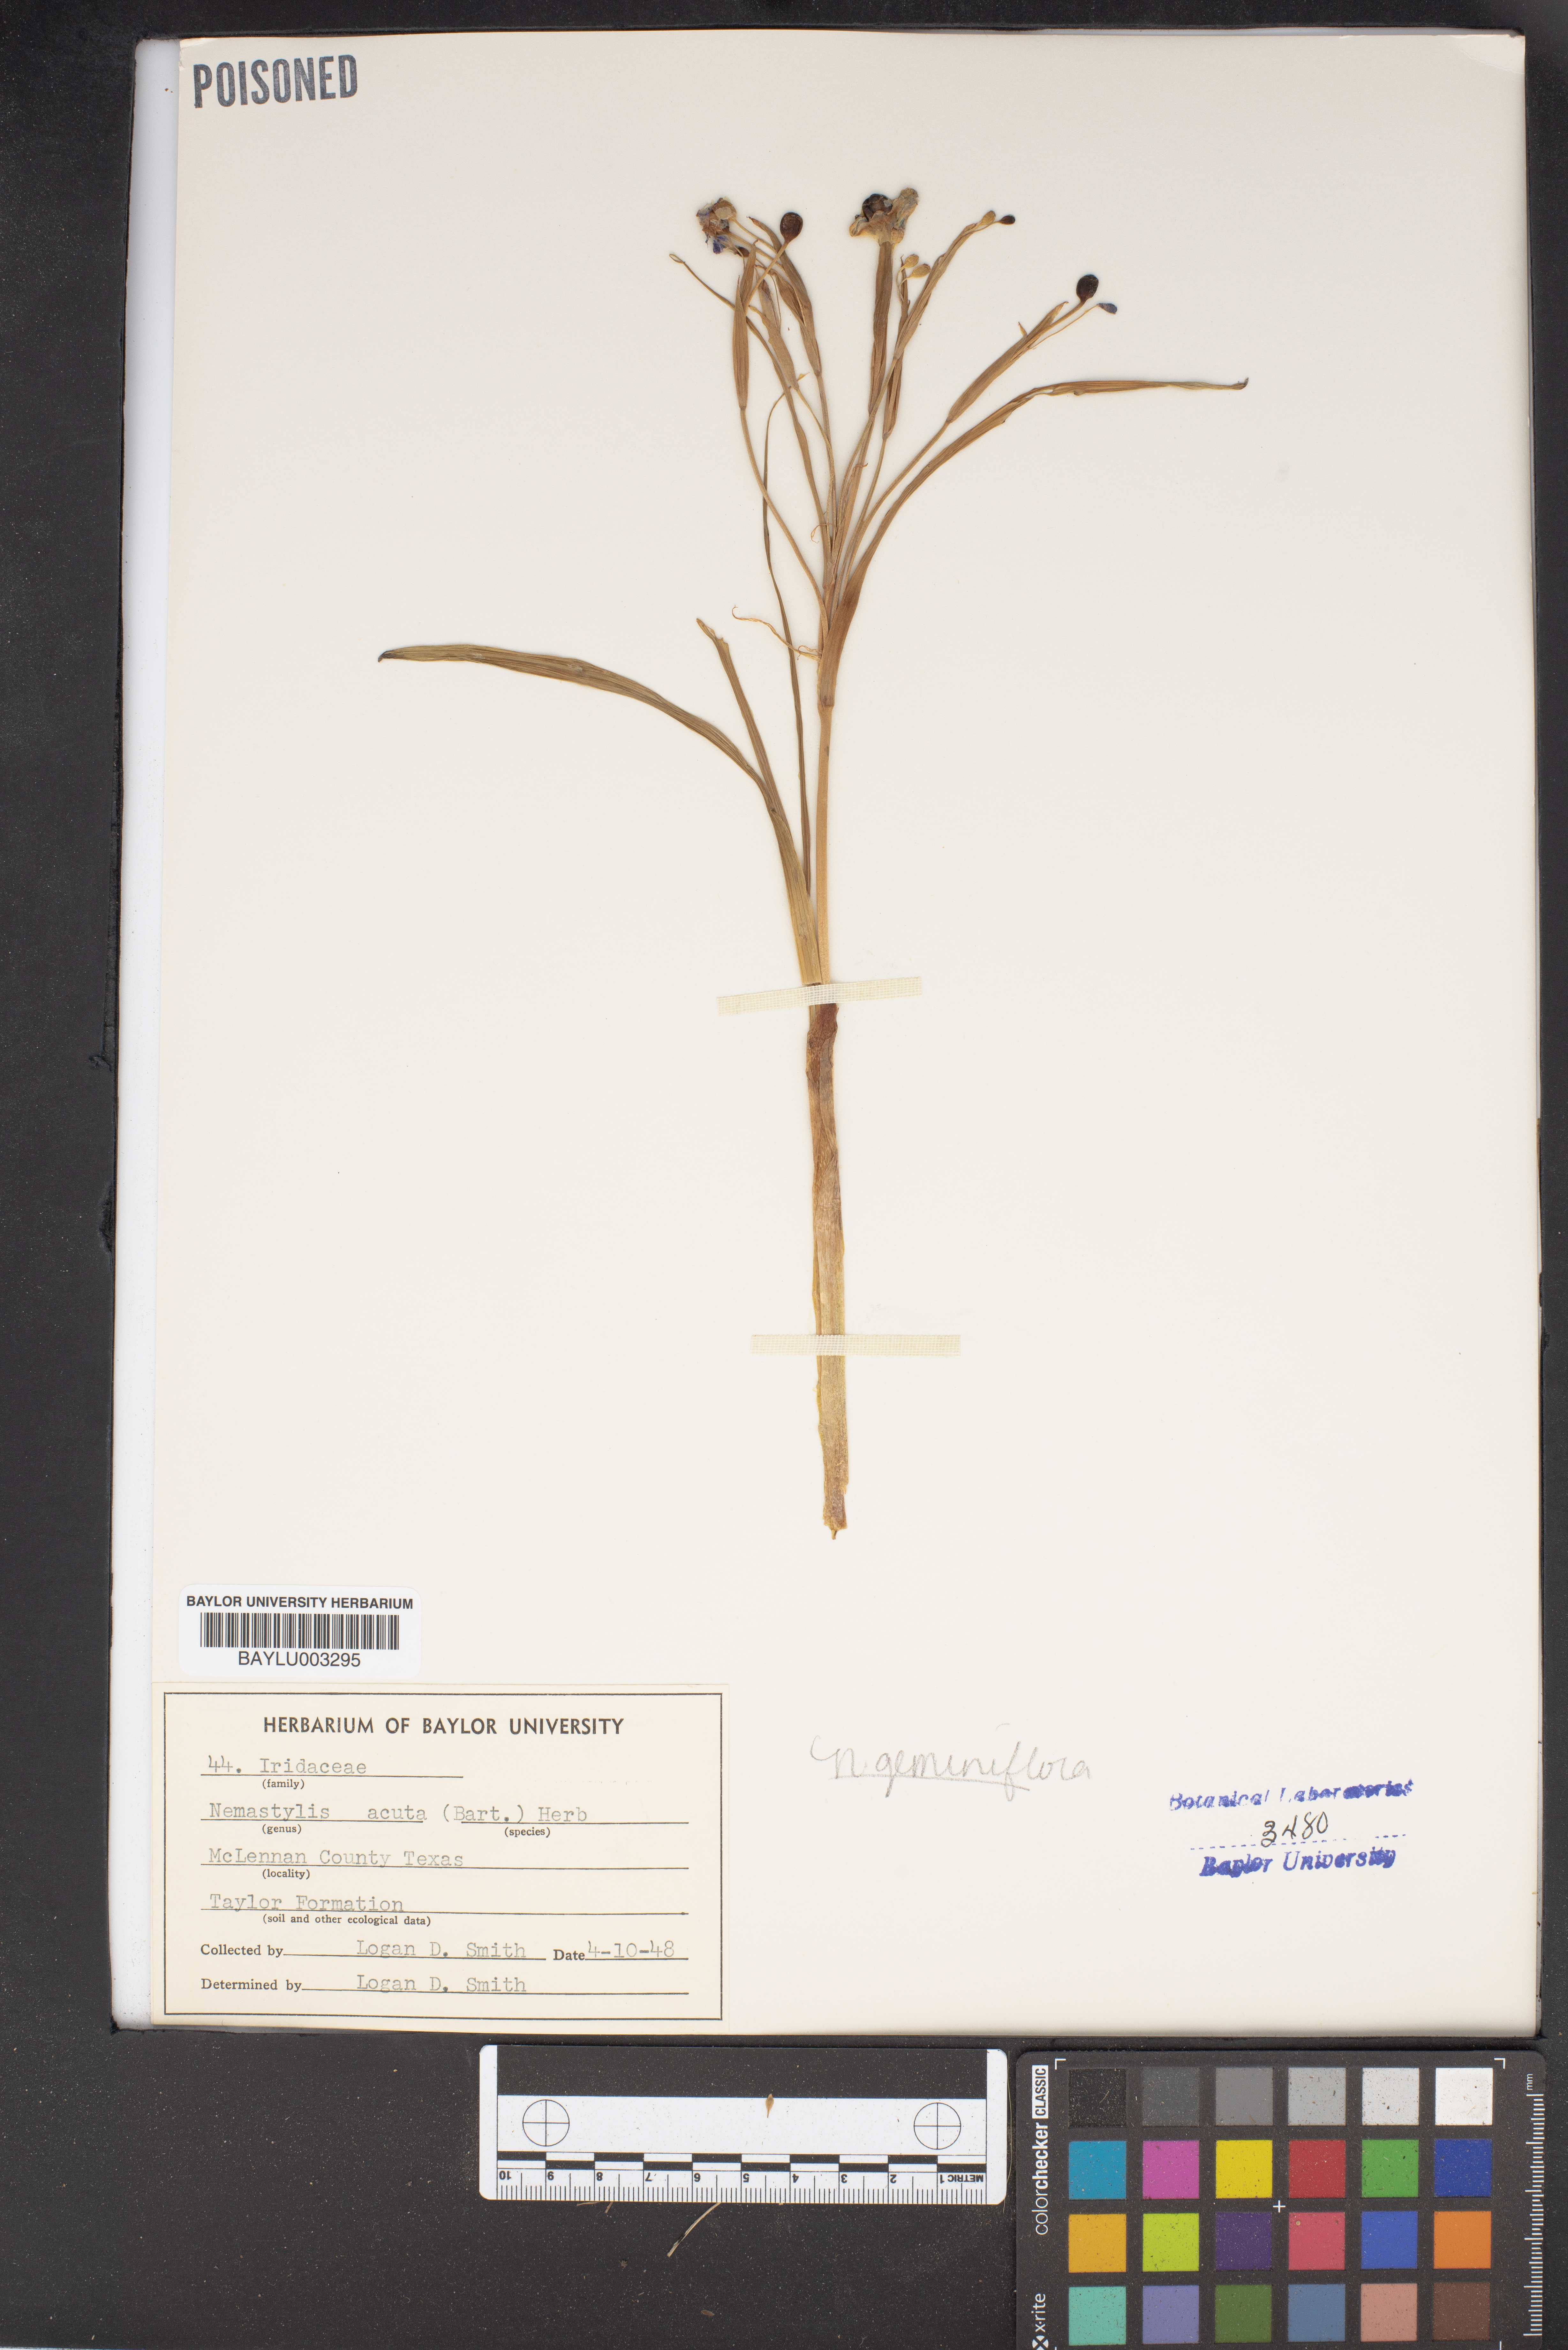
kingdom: Plantae
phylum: Tracheophyta
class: Liliopsida
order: Asparagales
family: Iridaceae
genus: Nemastylis
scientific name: Nemastylis geminiflora
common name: Prairie celestial
